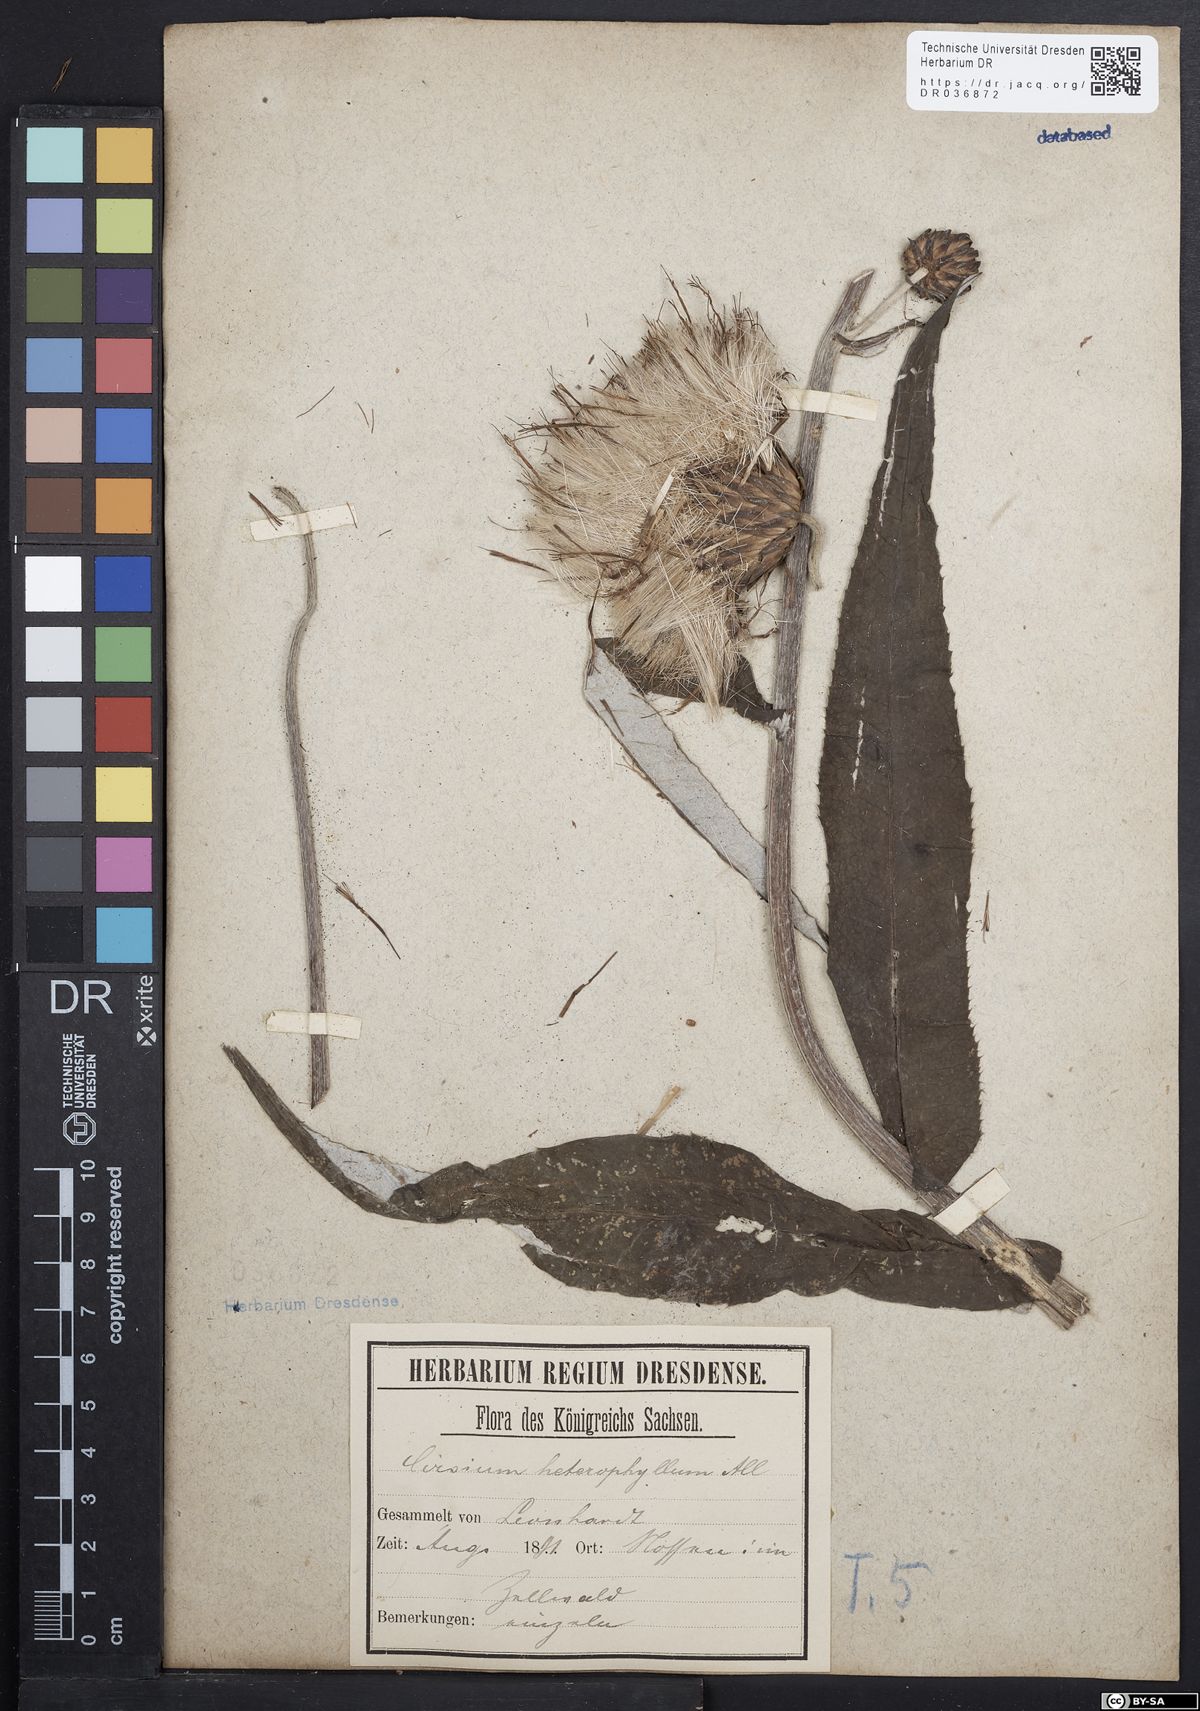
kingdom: Plantae
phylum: Tracheophyta
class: Magnoliopsida
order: Asterales
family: Asteraceae
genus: Cirsium
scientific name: Cirsium helenioides
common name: Melancholy thistle
